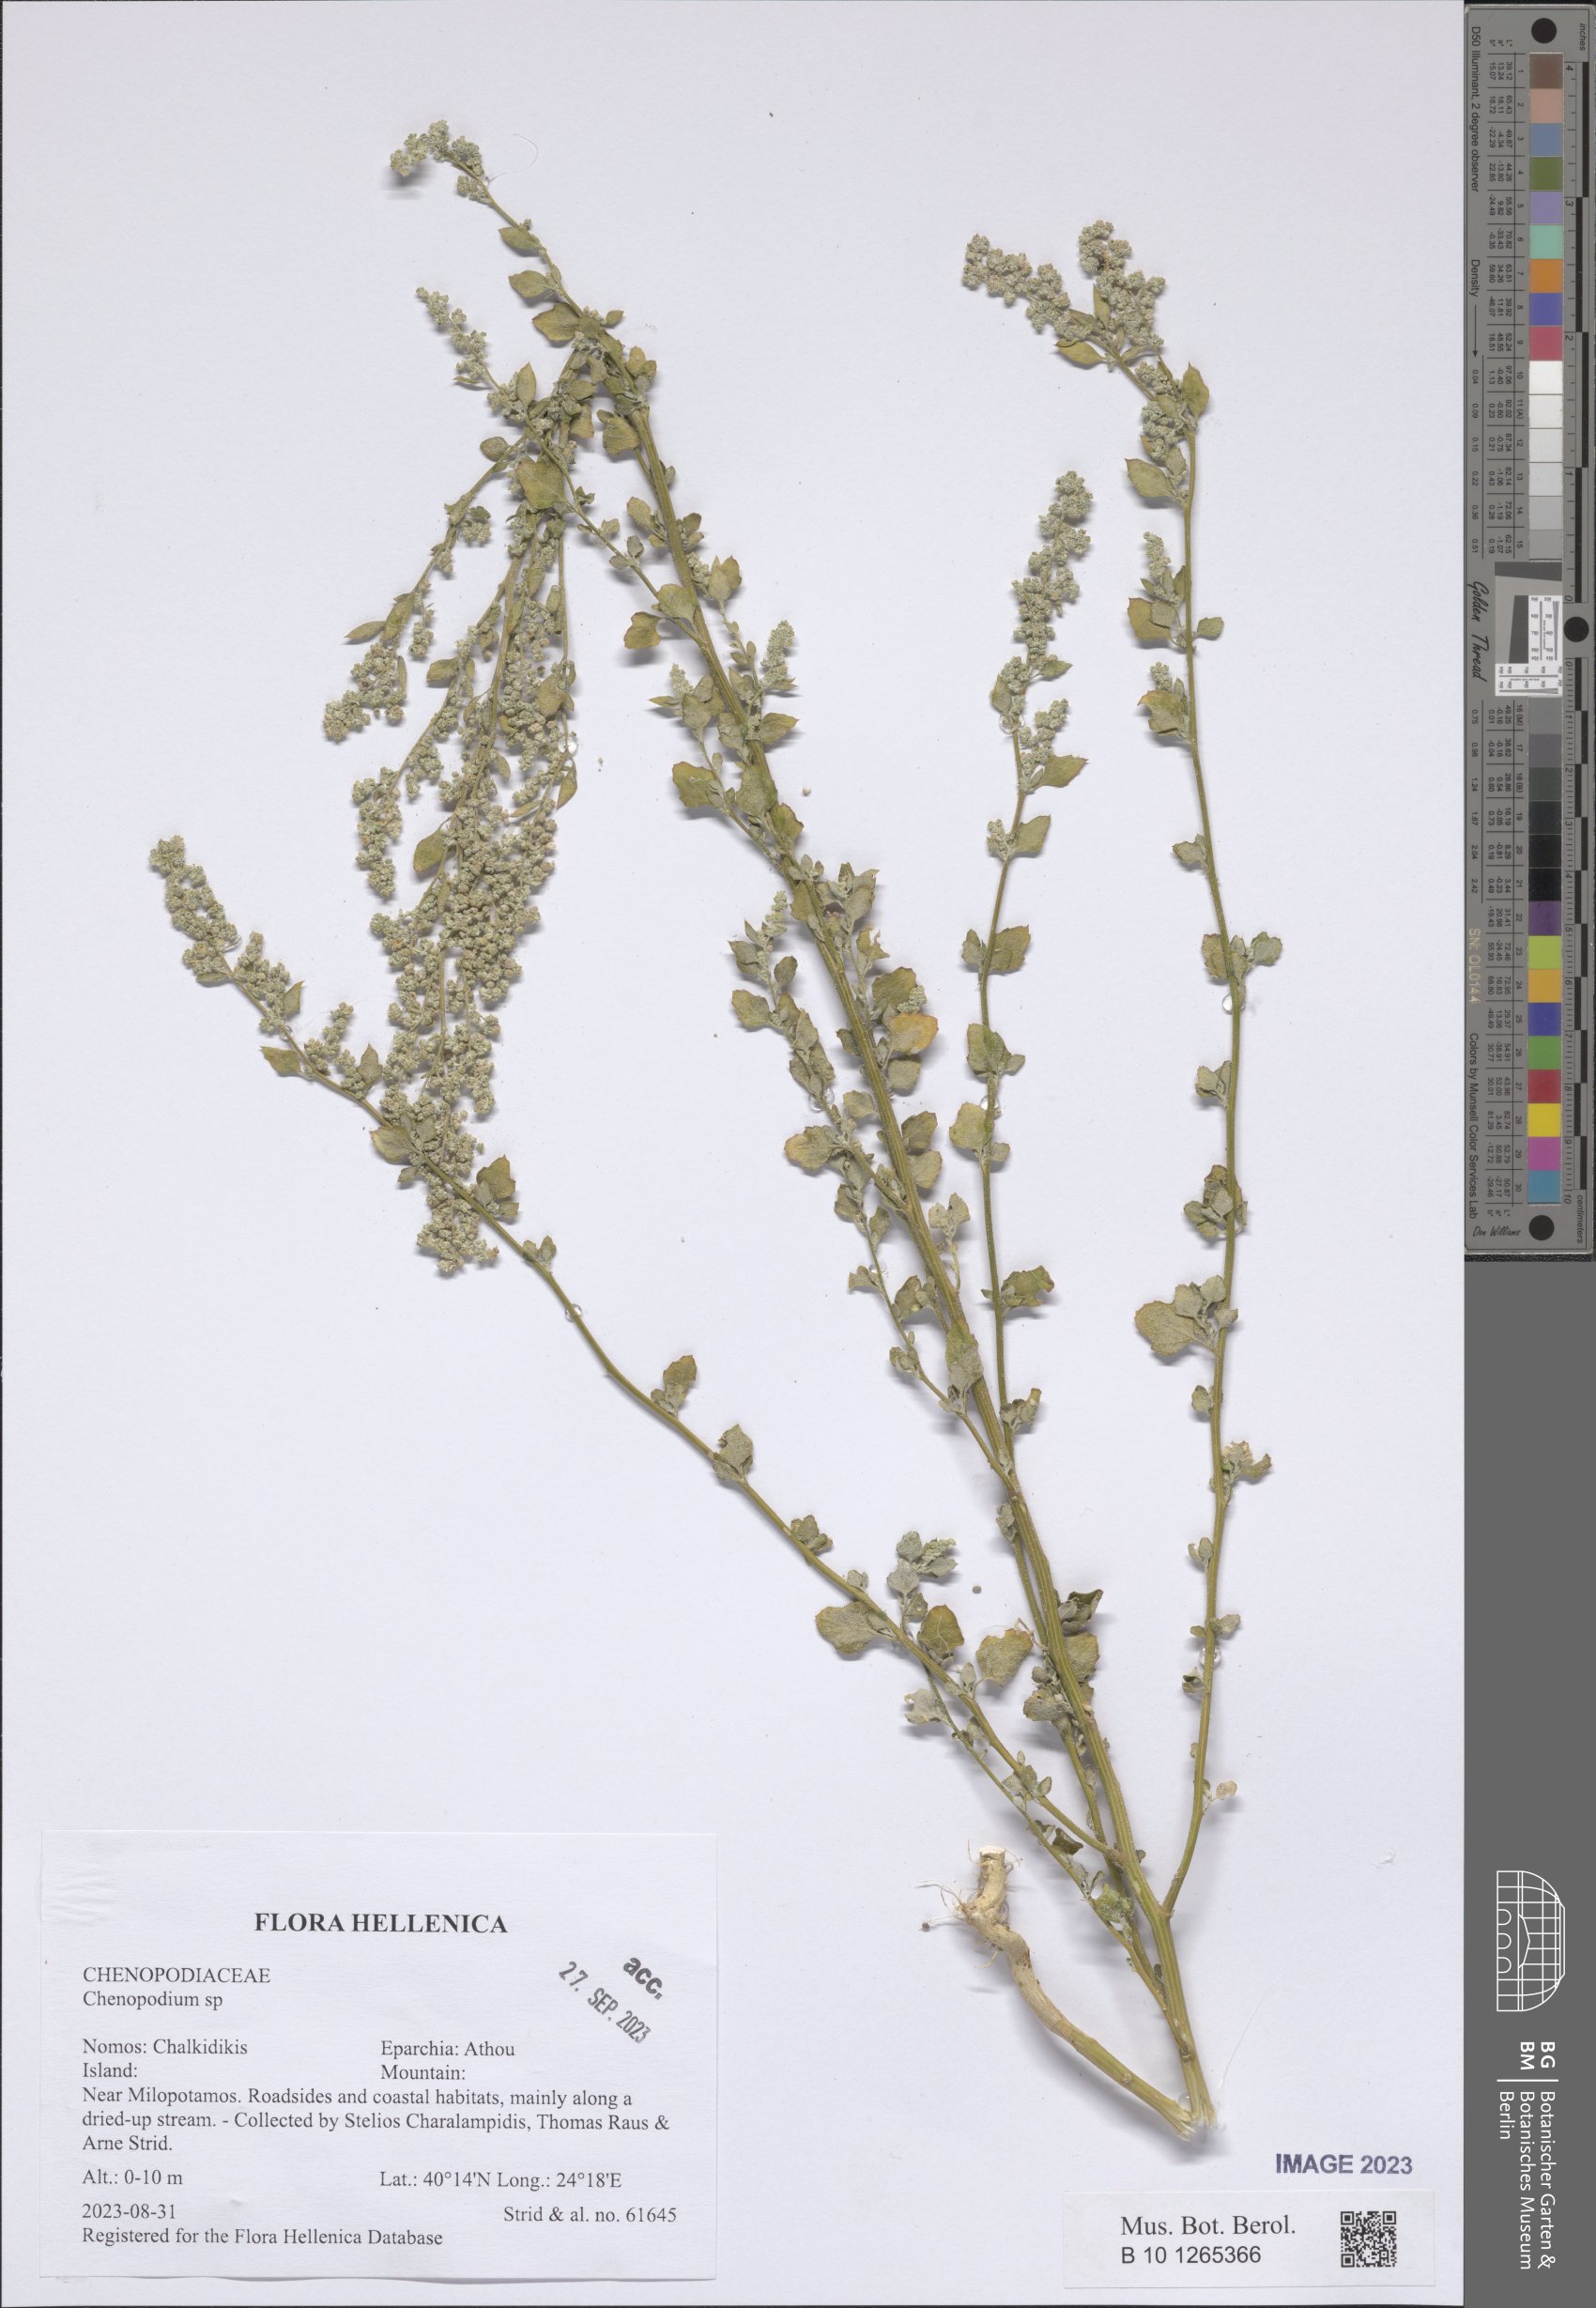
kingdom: Plantae
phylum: Tracheophyta
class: Magnoliopsida
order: Caryophyllales
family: Amaranthaceae
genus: Chenopodium
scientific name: Chenopodium
